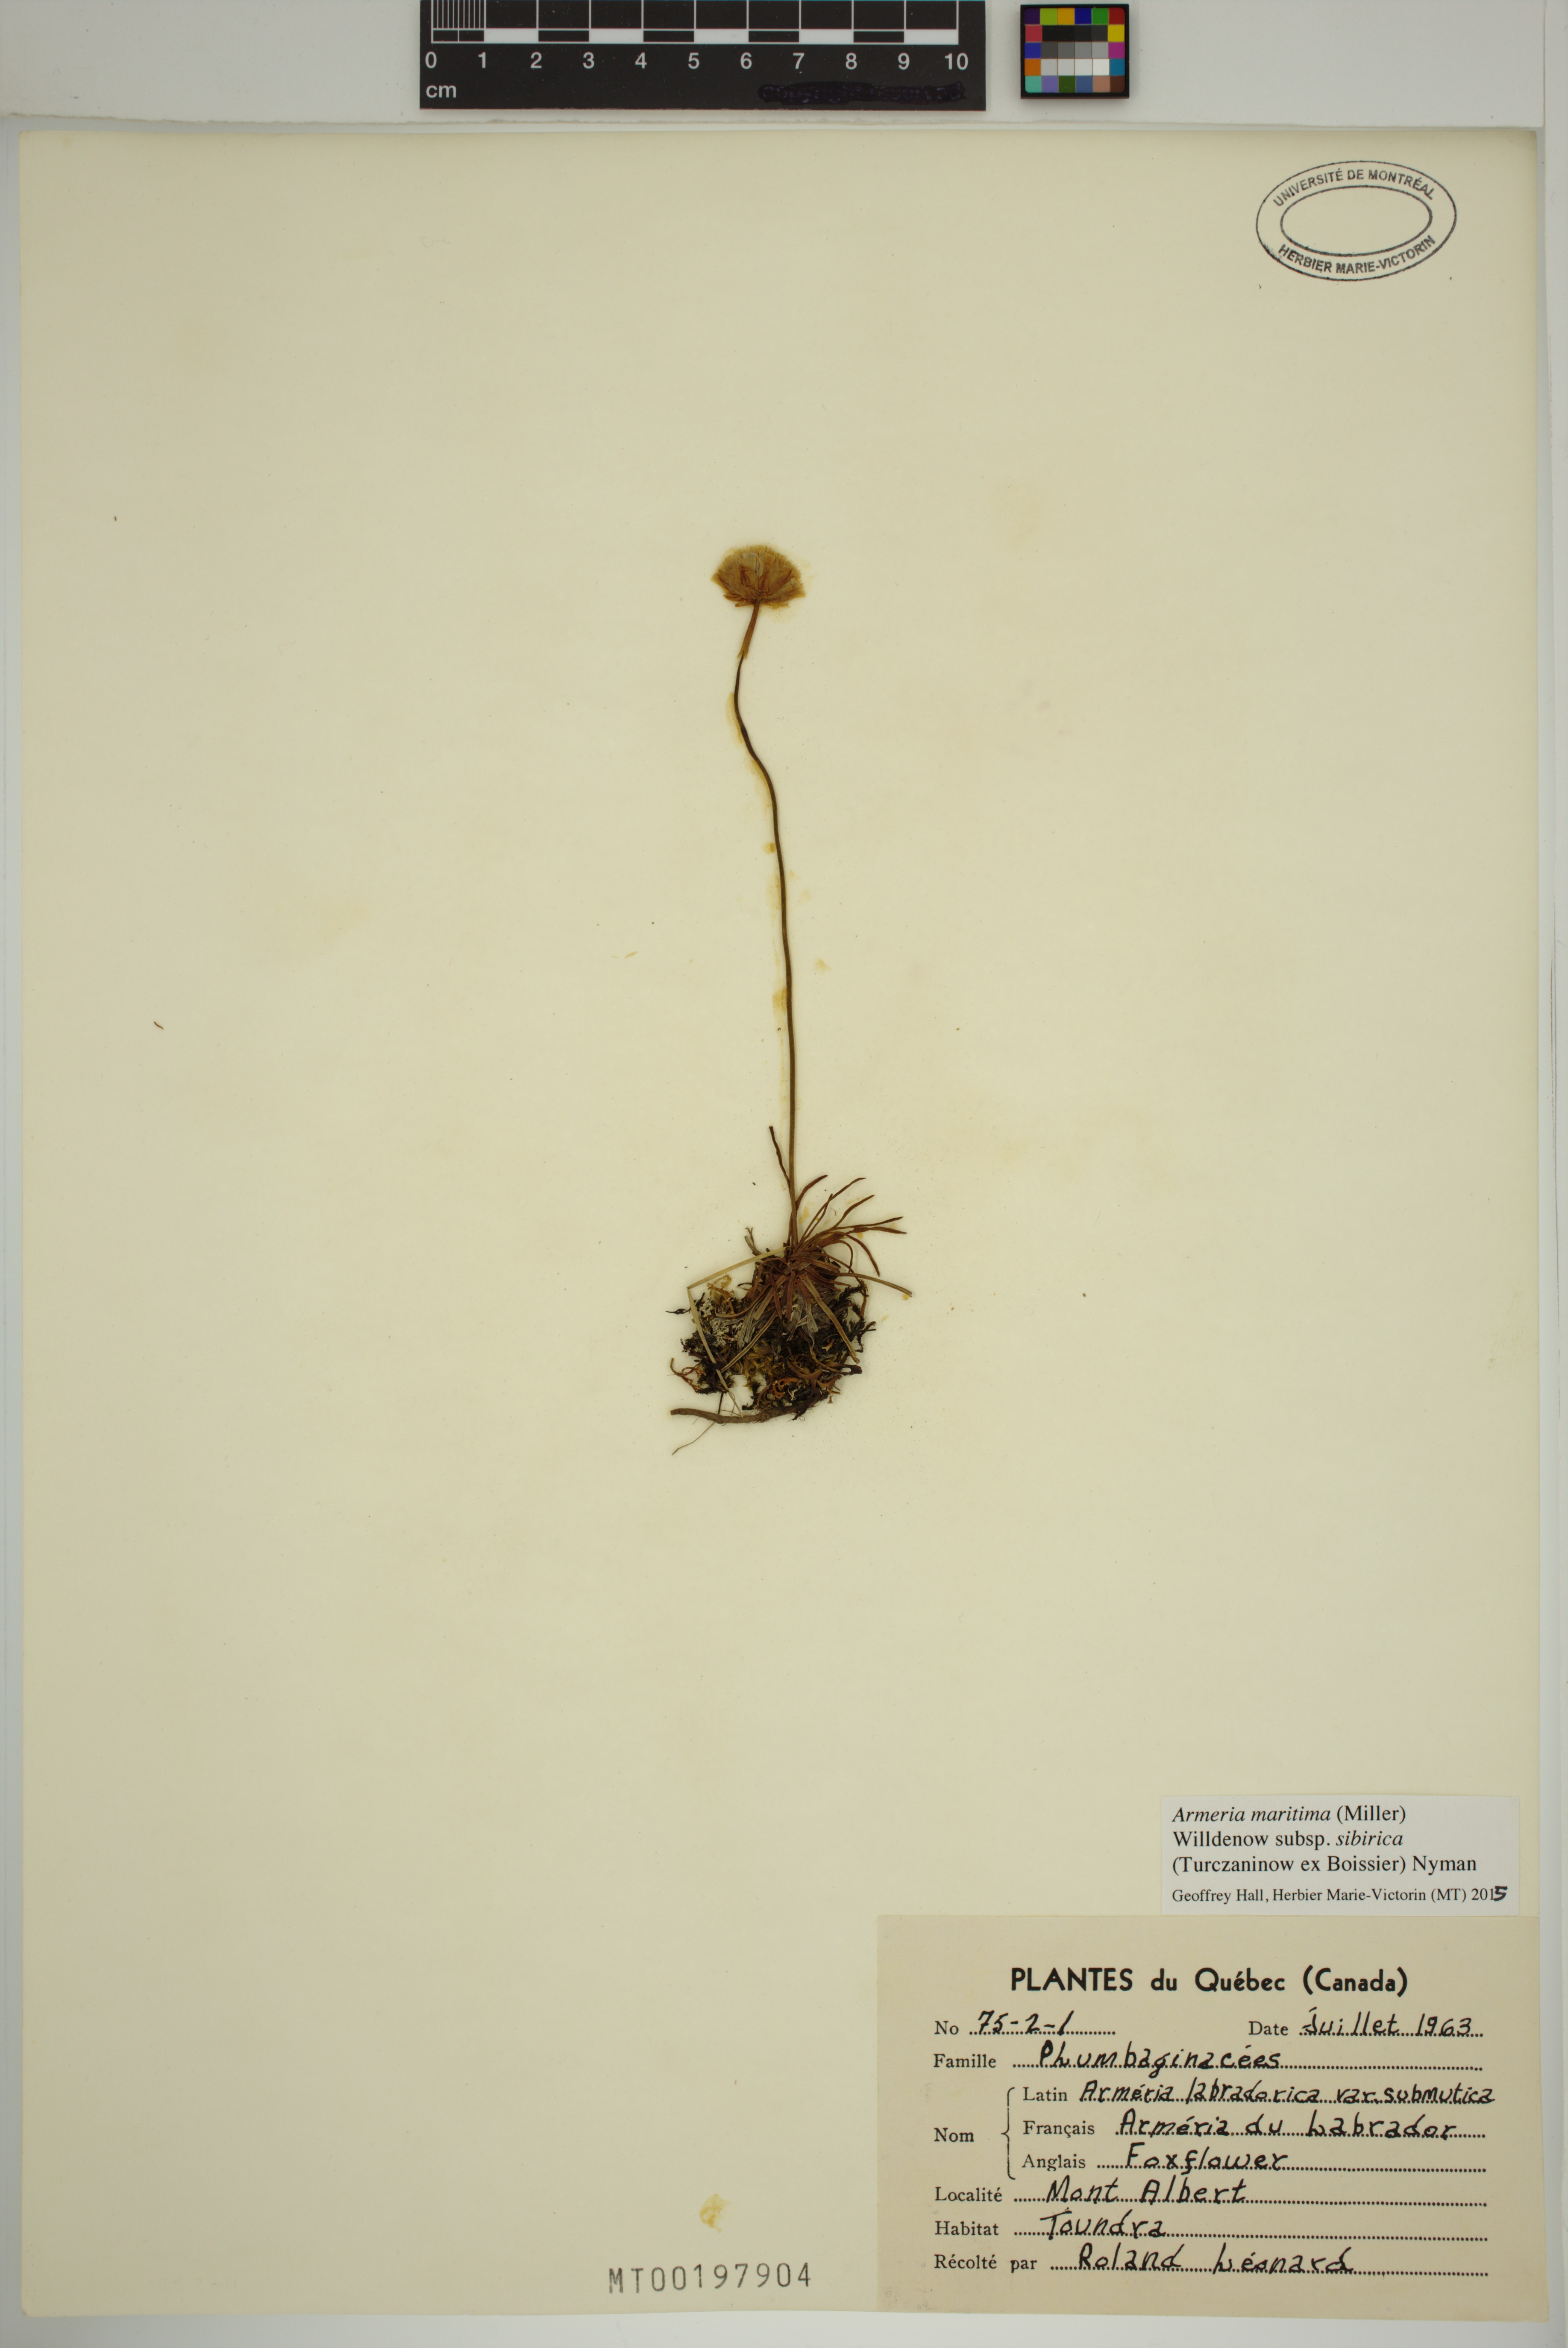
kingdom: Plantae
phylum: Tracheophyta
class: Magnoliopsida
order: Caryophyllales
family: Plumbaginaceae
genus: Armeria
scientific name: Armeria maritima
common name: Thrift
